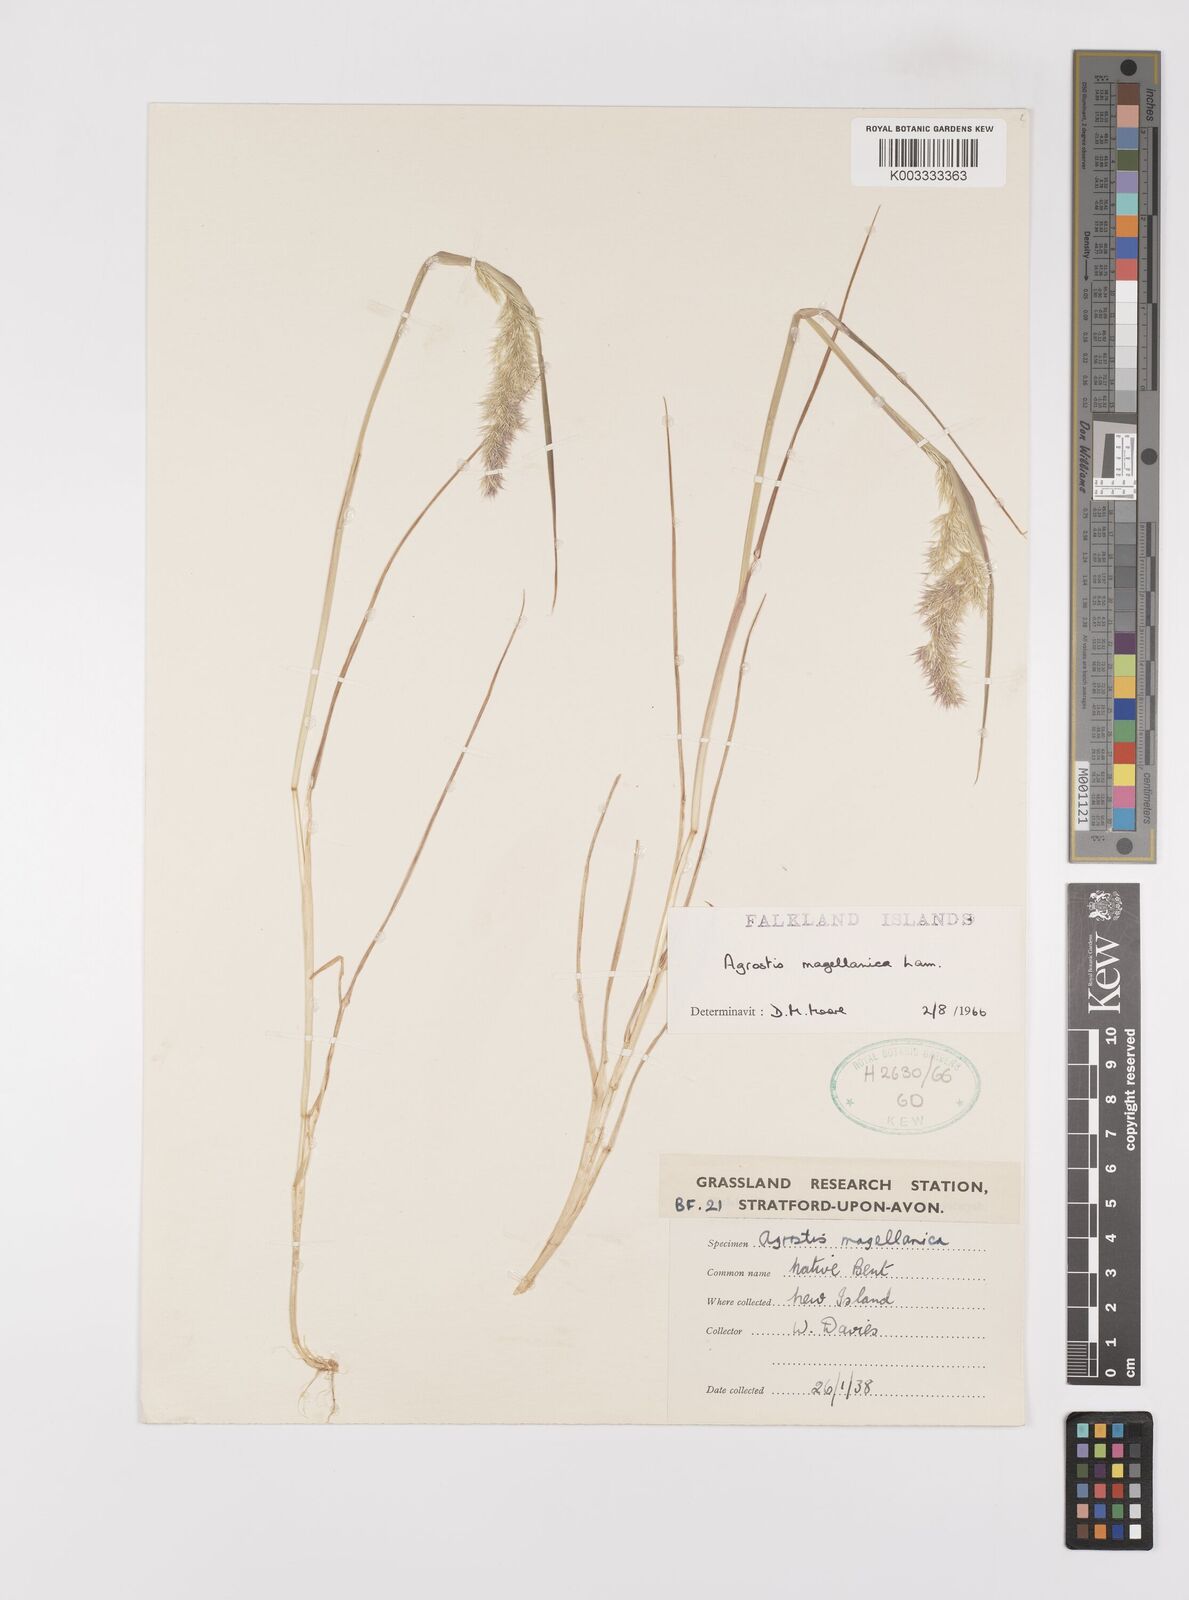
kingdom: Plantae
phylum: Tracheophyta
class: Liliopsida
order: Poales
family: Poaceae
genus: Polypogon
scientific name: Polypogon magellanicus
